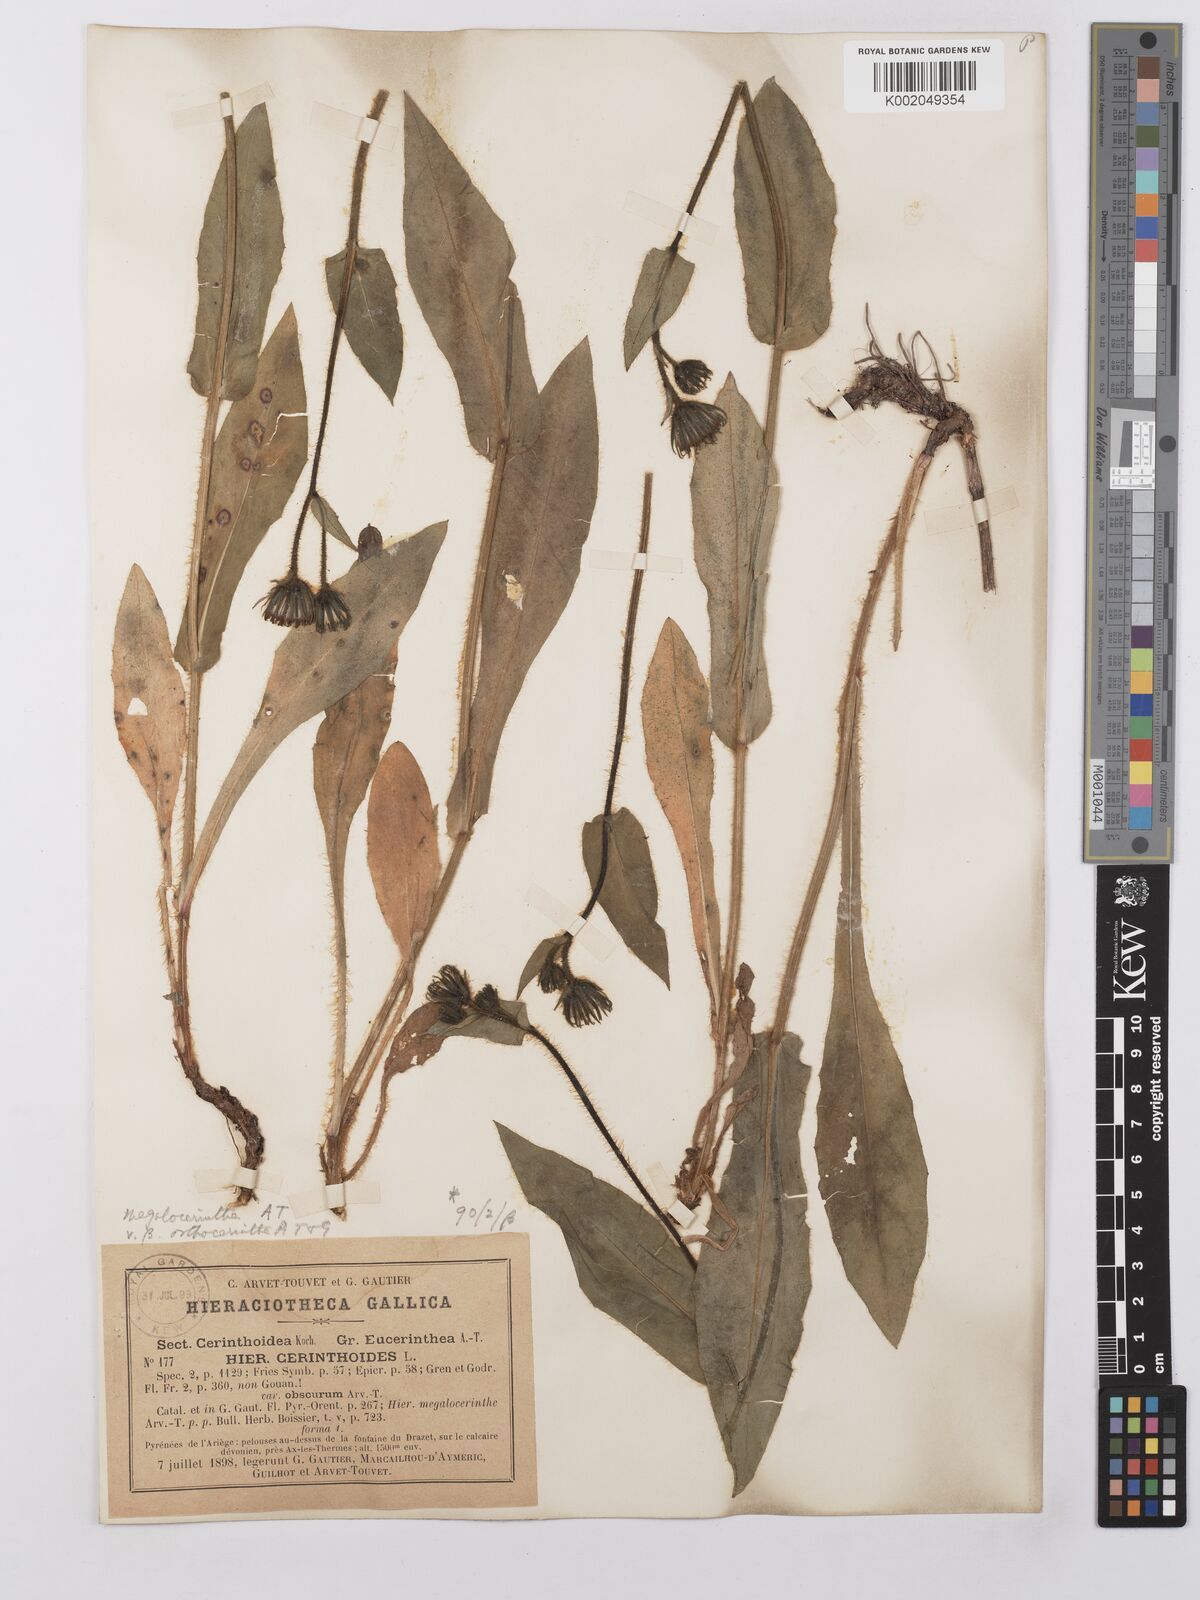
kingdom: Plantae
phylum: Tracheophyta
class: Magnoliopsida
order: Asterales
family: Asteraceae
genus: Hieracium
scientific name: Hieracium cerinthoides
